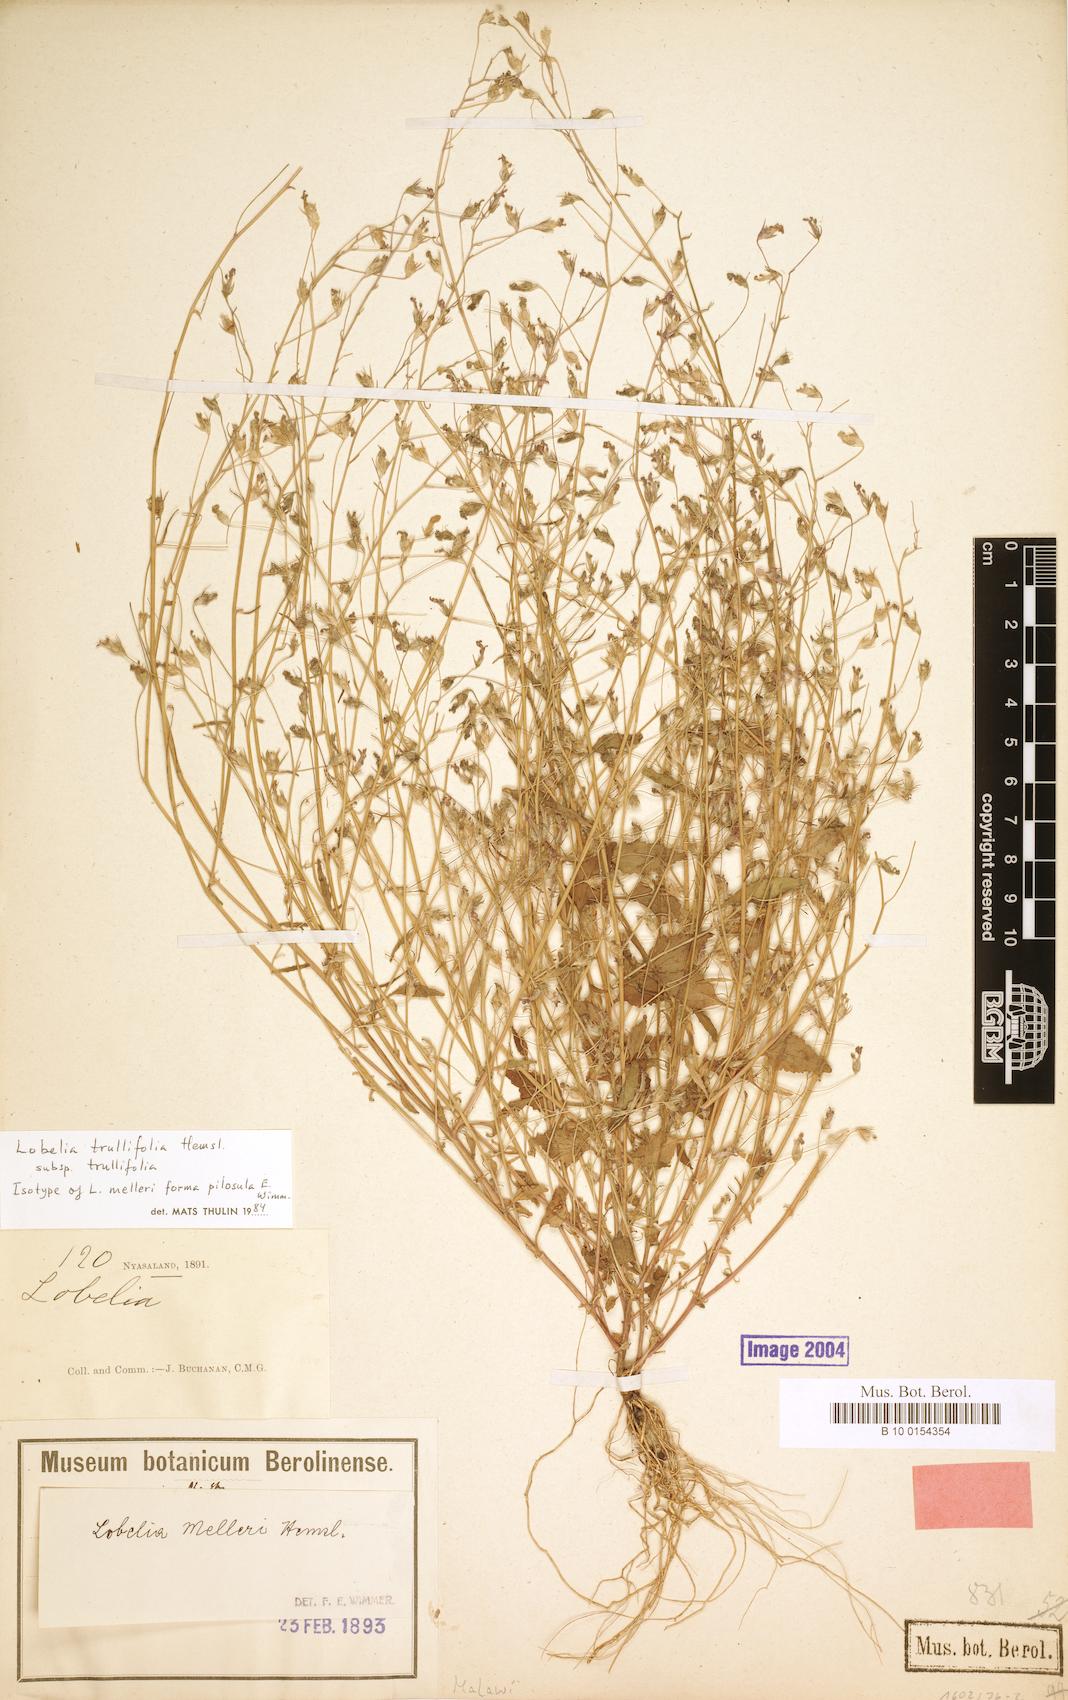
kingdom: Plantae
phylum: Tracheophyta
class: Magnoliopsida
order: Asterales
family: Campanulaceae
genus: Lobelia
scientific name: Lobelia trullifolia
